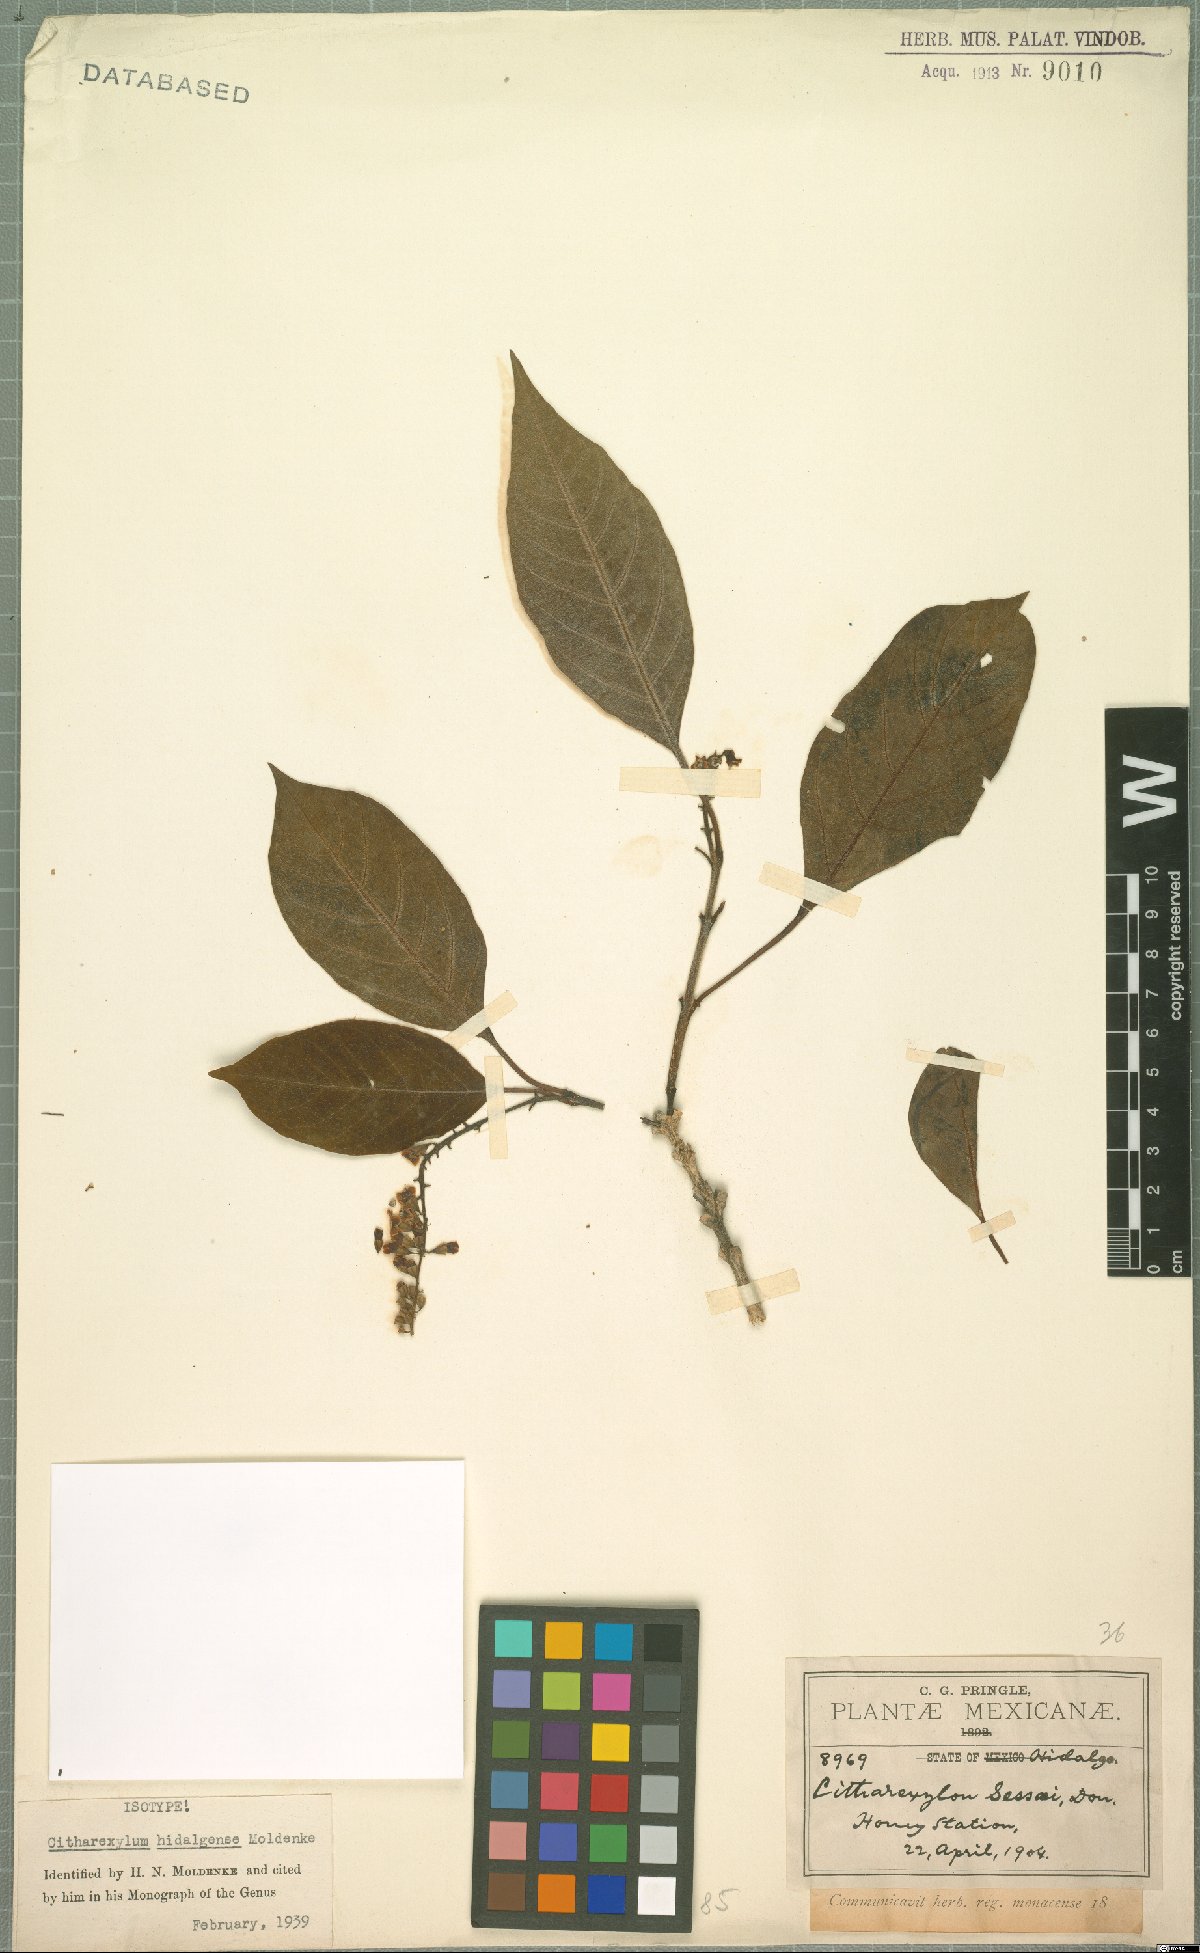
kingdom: Plantae
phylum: Tracheophyta
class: Magnoliopsida
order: Lamiales
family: Verbenaceae
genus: Citharexylum
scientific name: Citharexylum hidalgense
